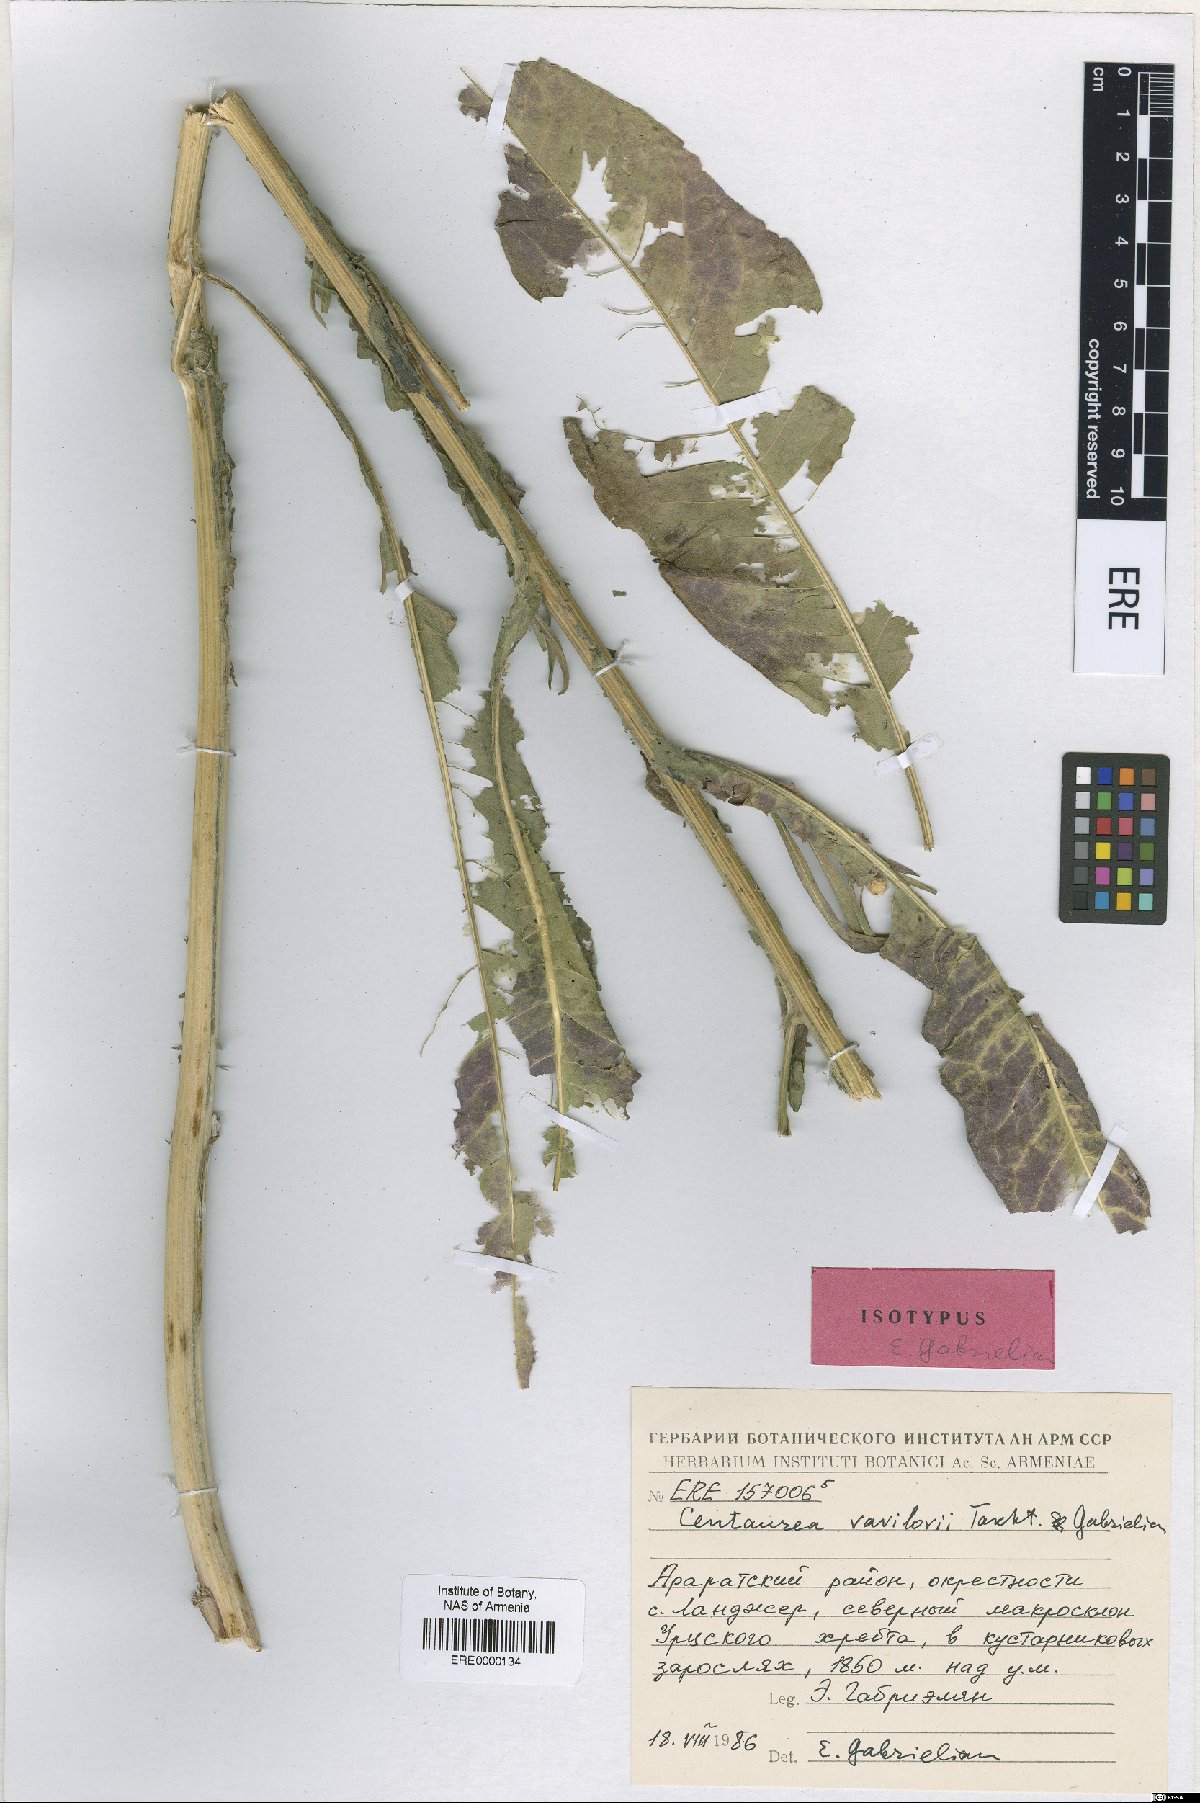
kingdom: Plantae
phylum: Tracheophyta
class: Magnoliopsida
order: Asterales
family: Asteraceae
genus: Centaurea
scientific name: Centaurea vavilovii
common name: Vavilov's centaury
